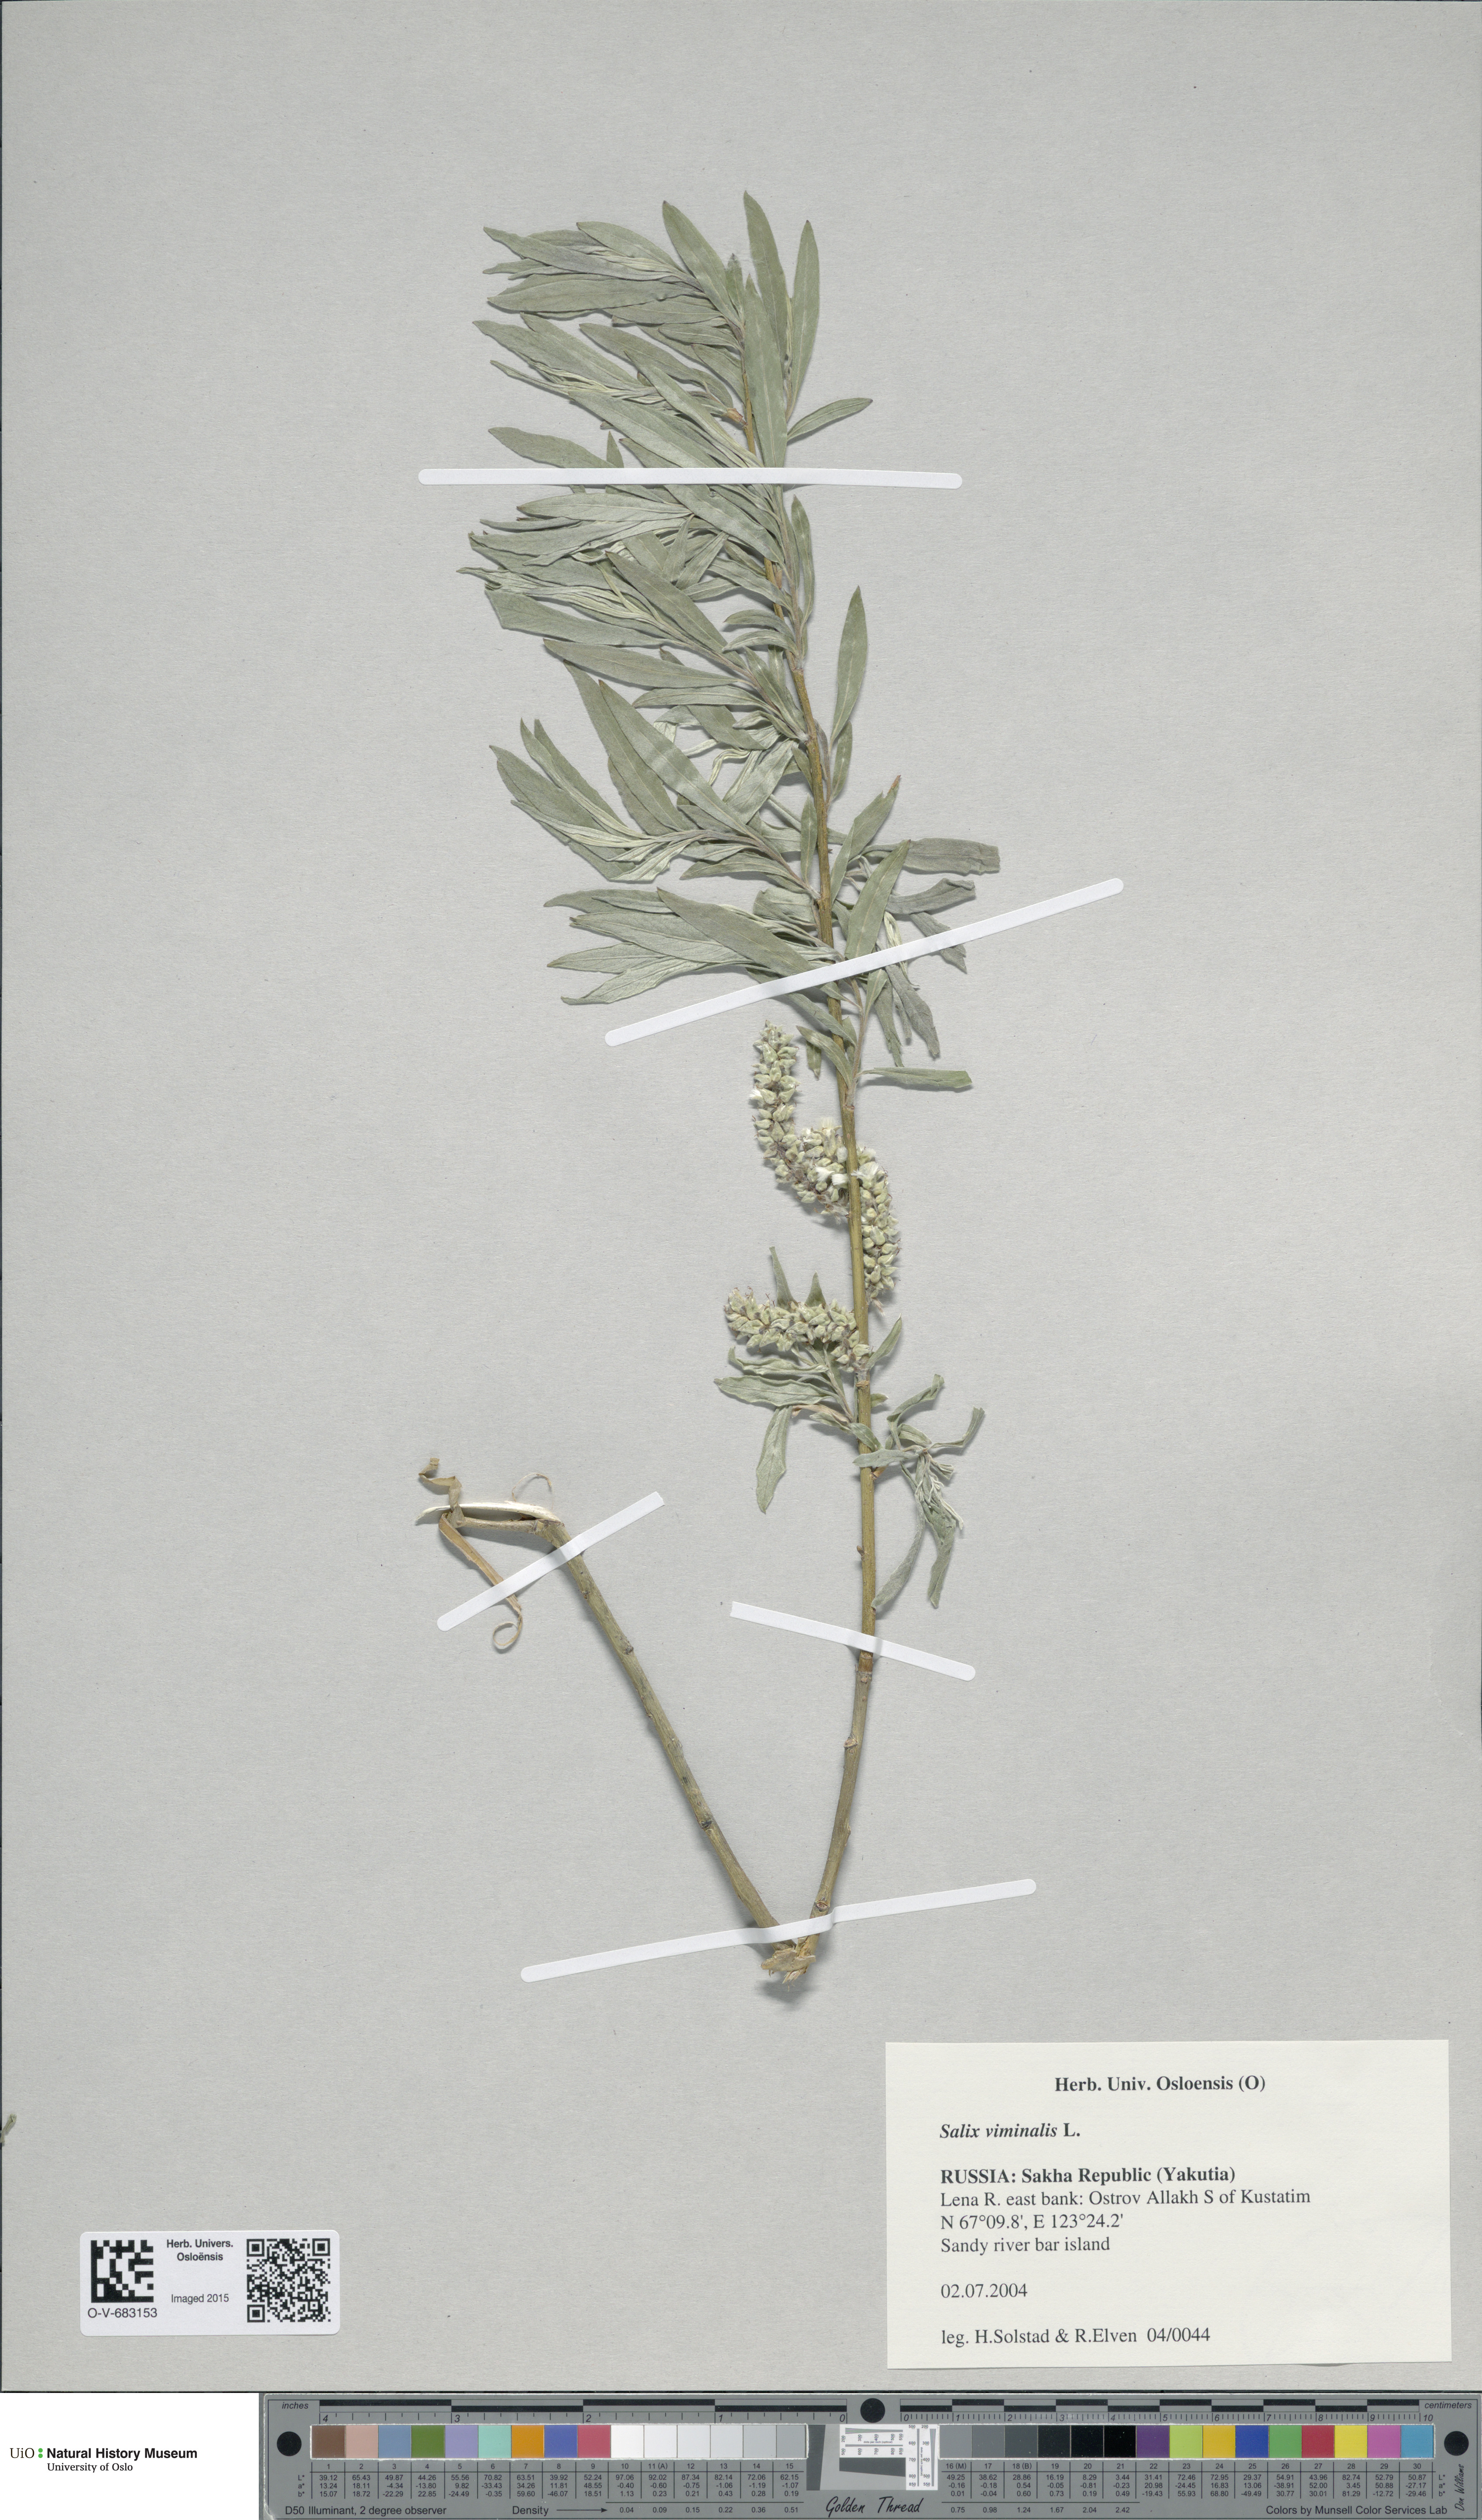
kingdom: Plantae
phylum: Tracheophyta
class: Magnoliopsida
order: Malpighiales
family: Salicaceae
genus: Salix
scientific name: Salix viminalis
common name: Osier
